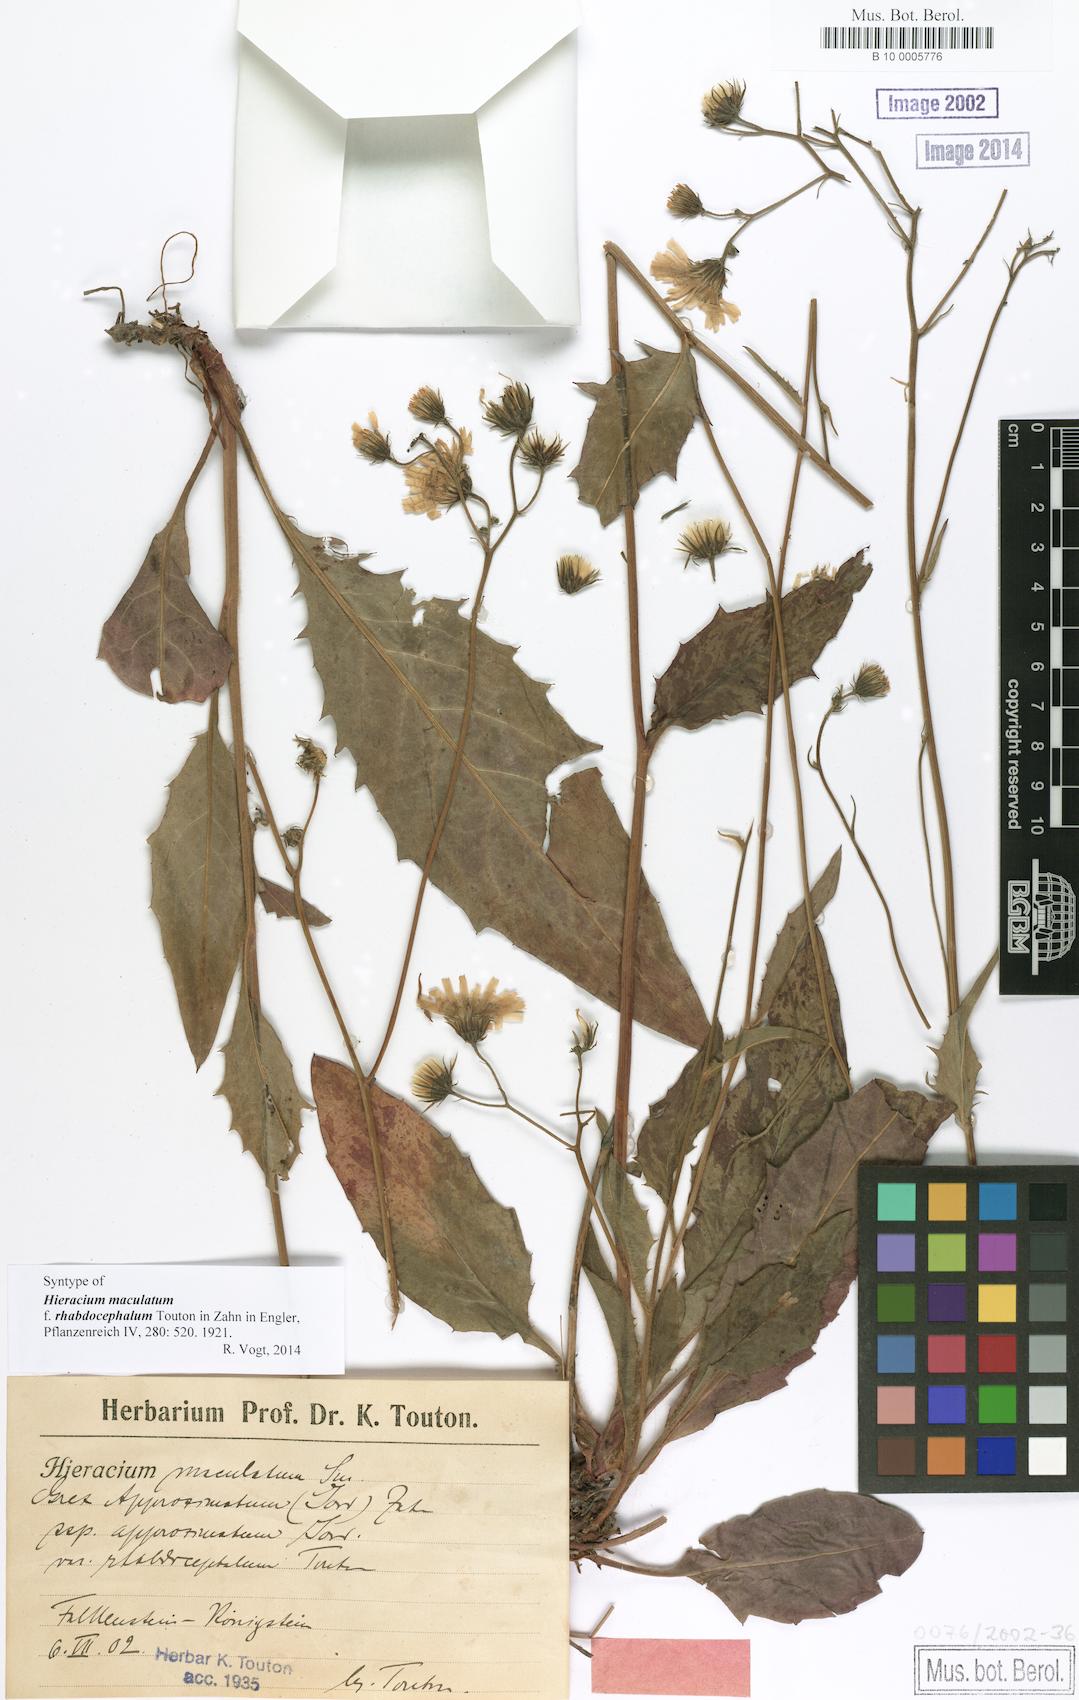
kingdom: Plantae
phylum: Tracheophyta
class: Magnoliopsida
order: Asterales
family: Asteraceae
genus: Hieracium
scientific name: Hieracium maculatum
